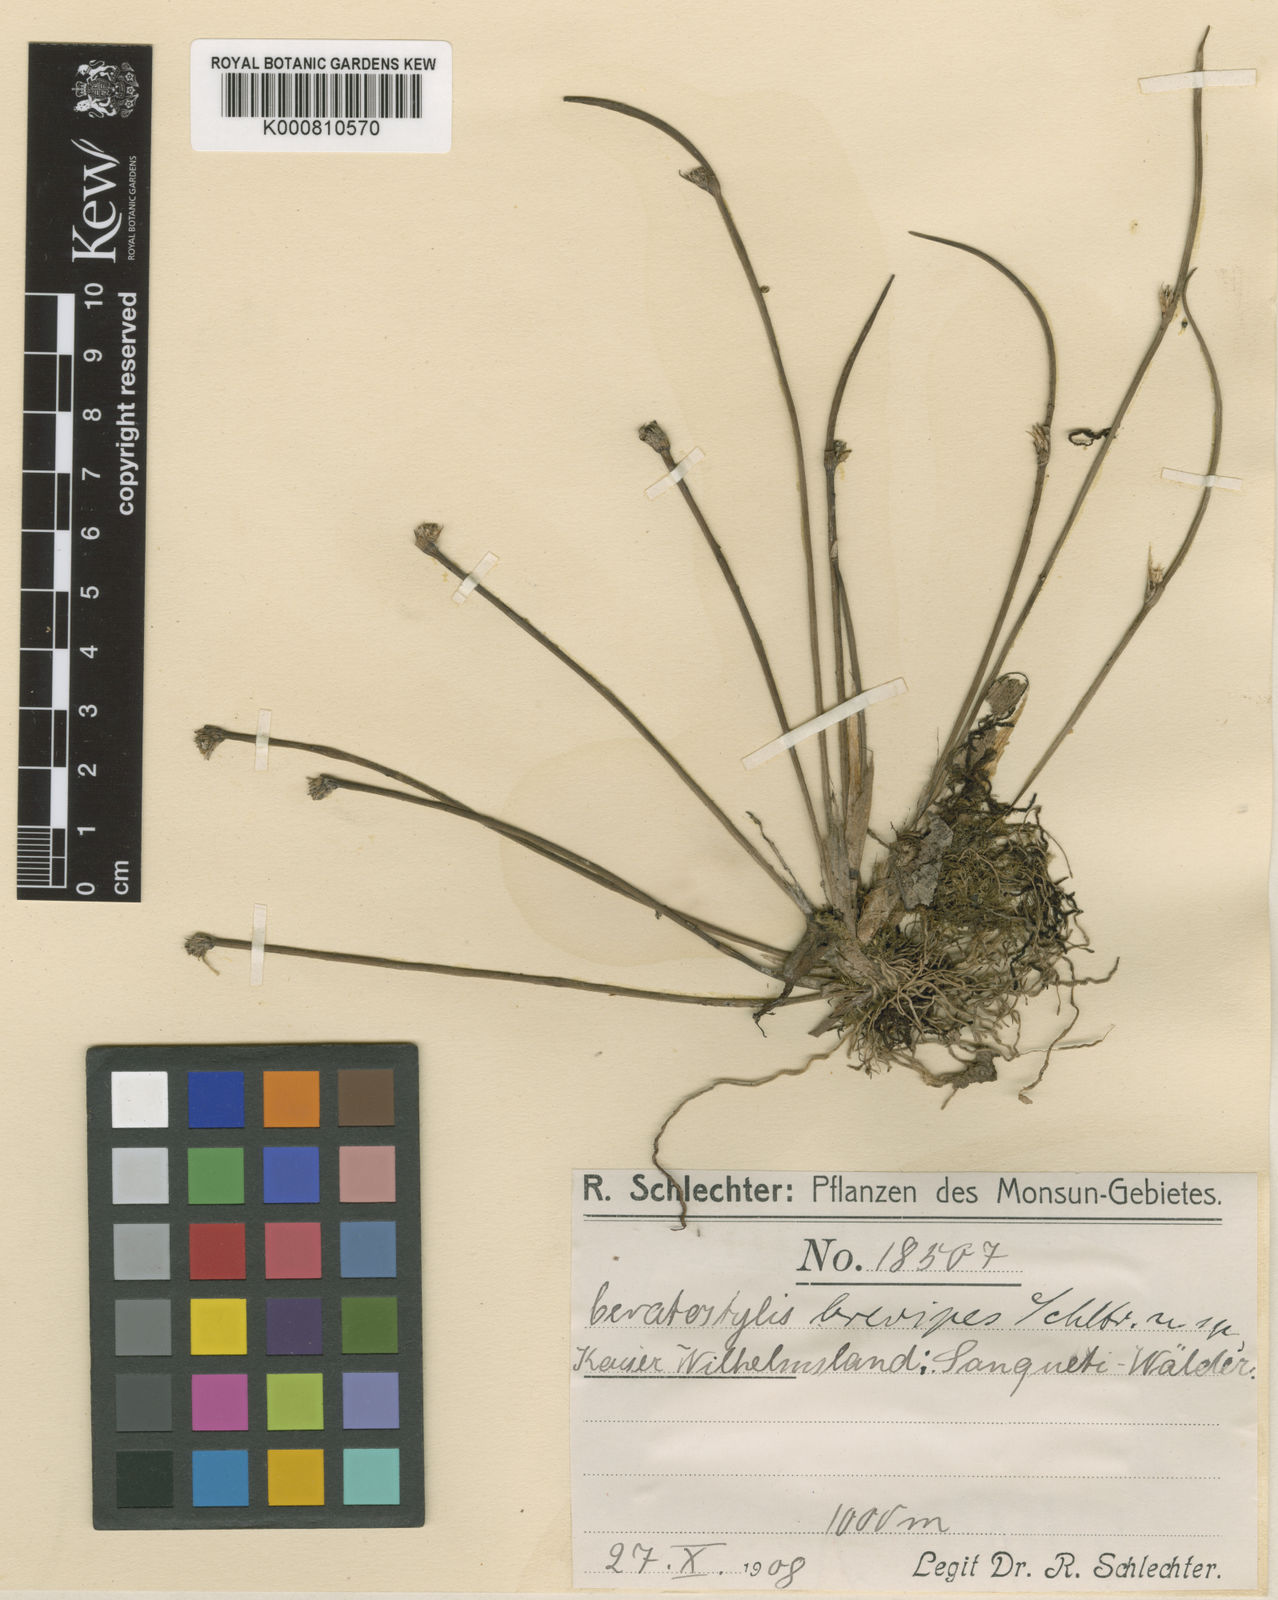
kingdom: Plantae
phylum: Tracheophyta
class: Liliopsida
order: Asparagales
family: Orchidaceae
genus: Ceratostylis
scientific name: Ceratostylis brevipes
